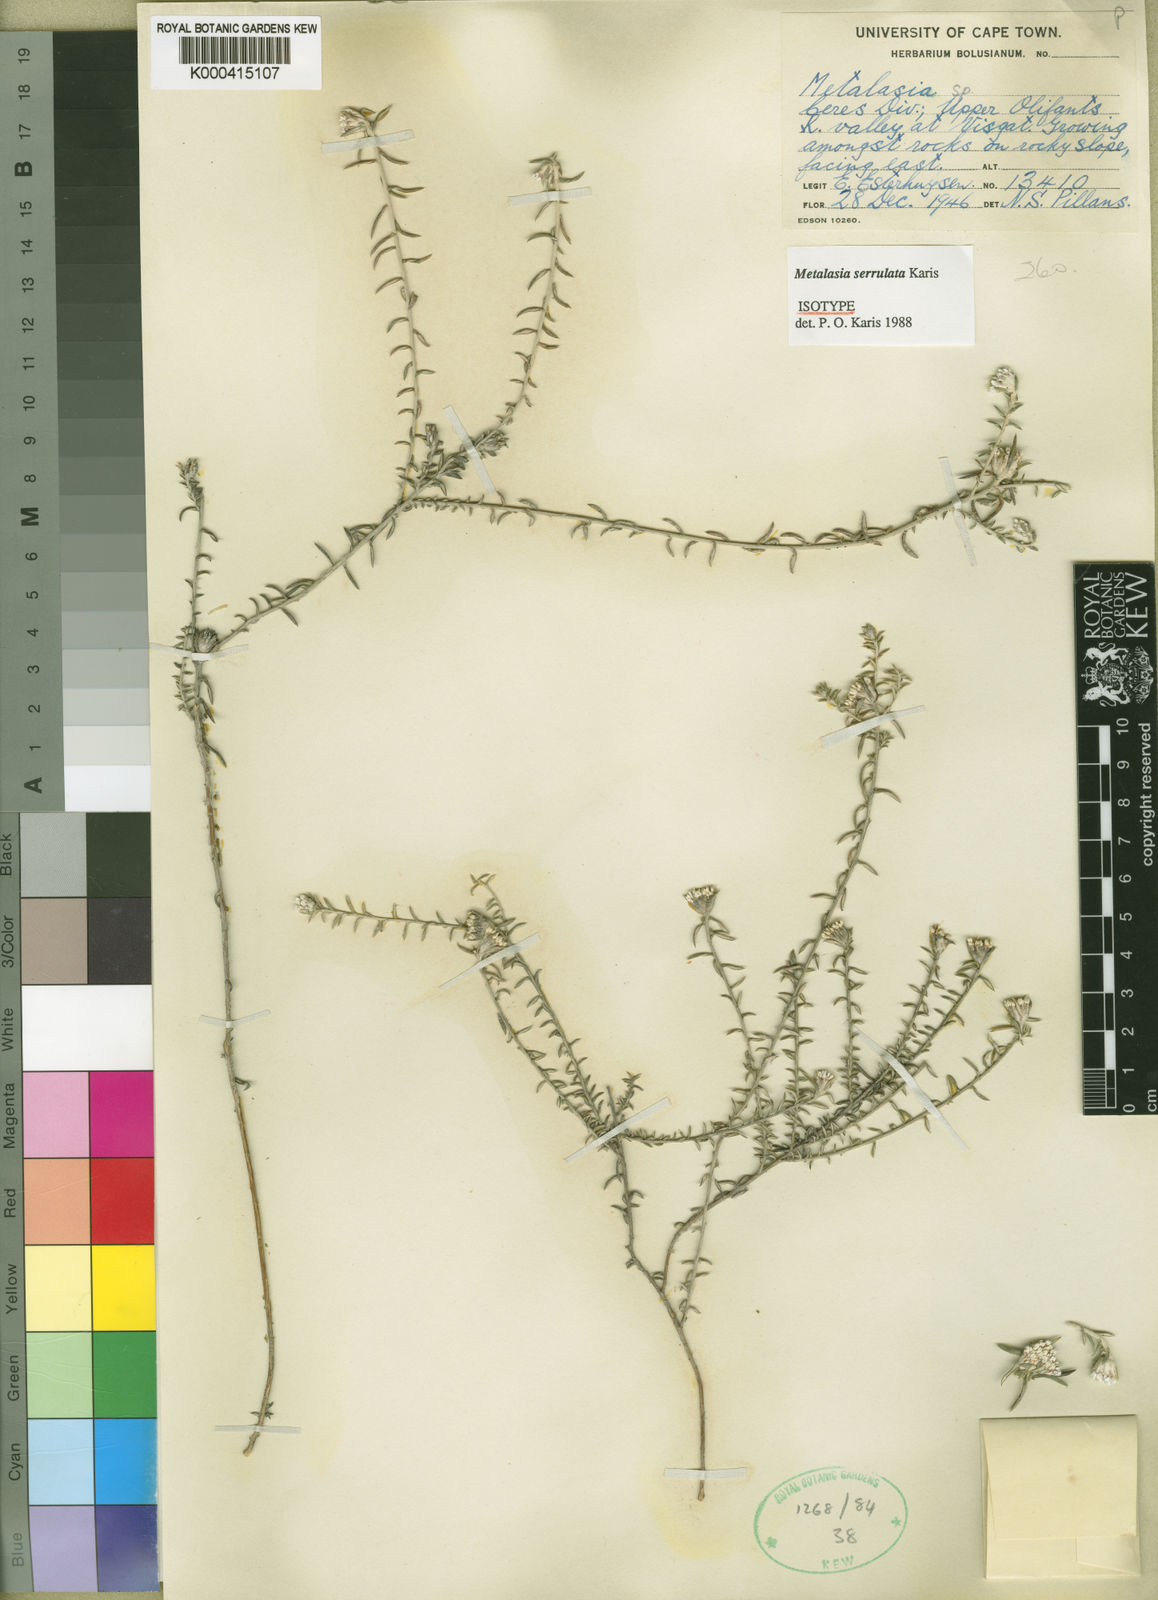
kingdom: Plantae
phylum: Tracheophyta
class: Magnoliopsida
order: Asterales
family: Asteraceae
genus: Metalasia
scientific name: Metalasia serrulata
